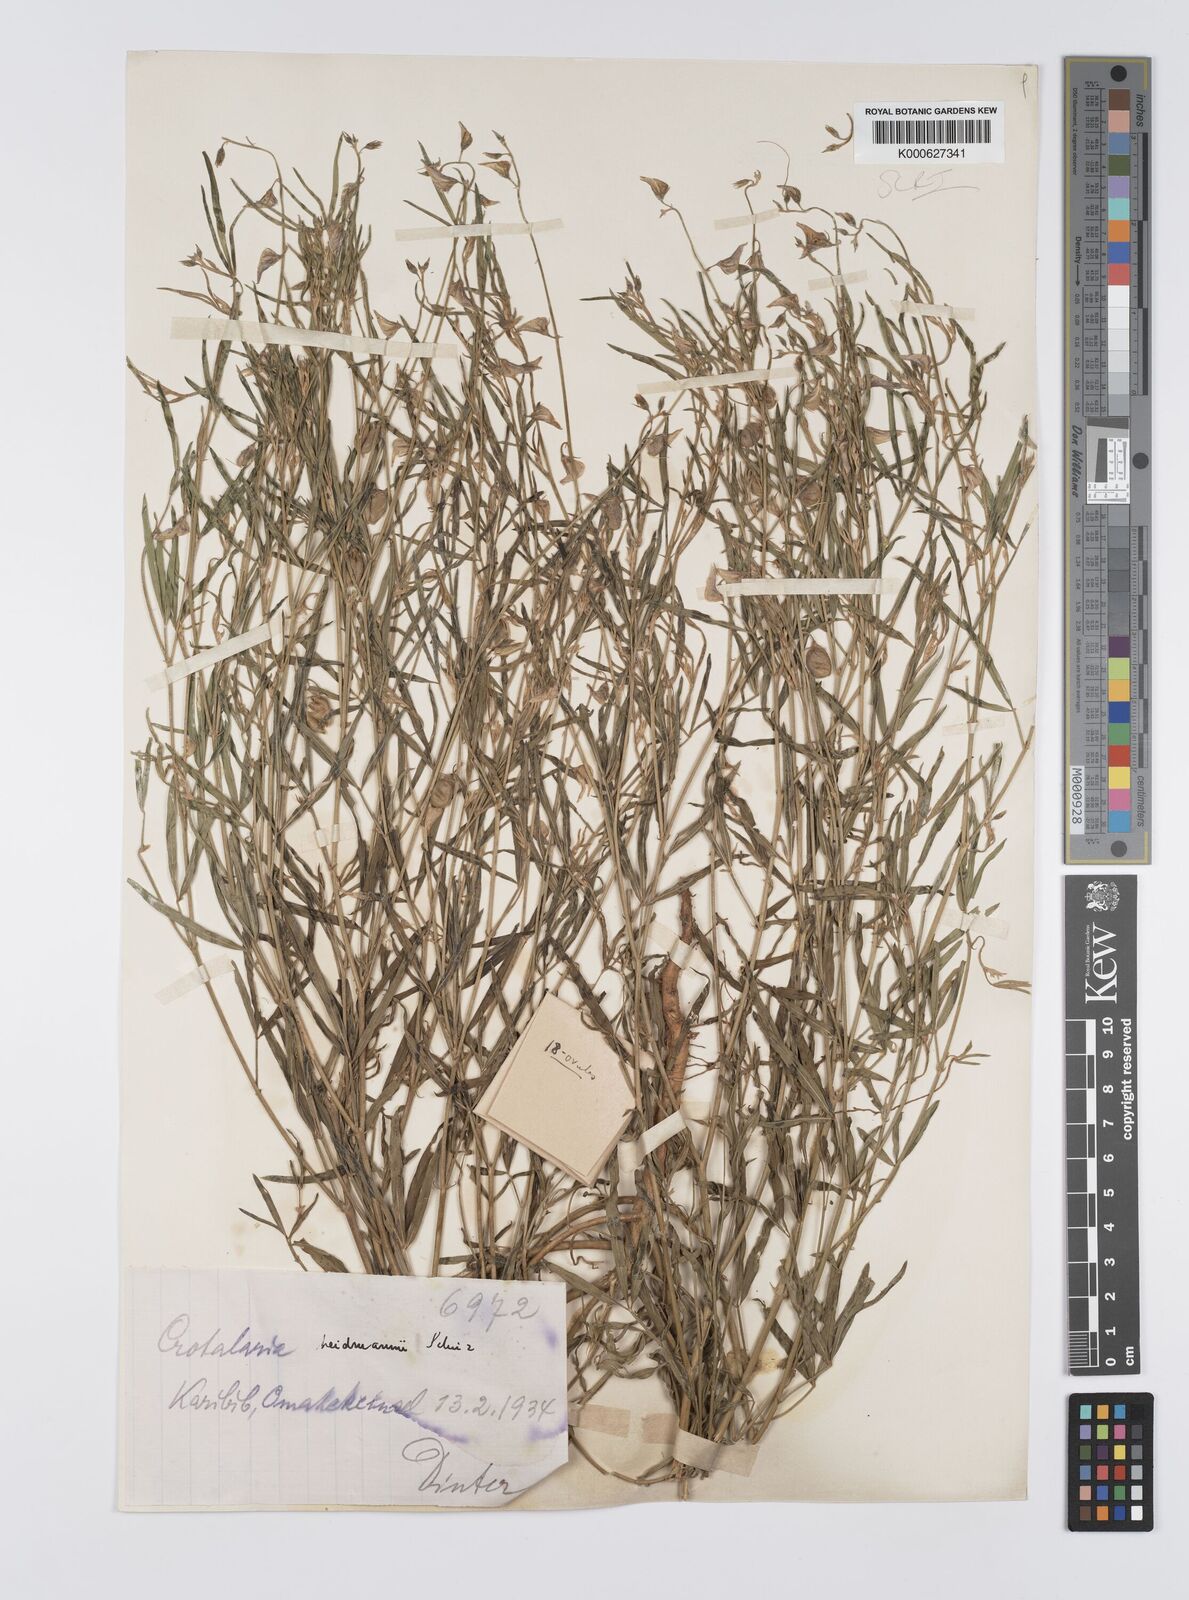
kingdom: Plantae
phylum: Tracheophyta
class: Magnoliopsida
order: Fabales
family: Fabaceae
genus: Crotalaria
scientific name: Crotalaria heidmannii
